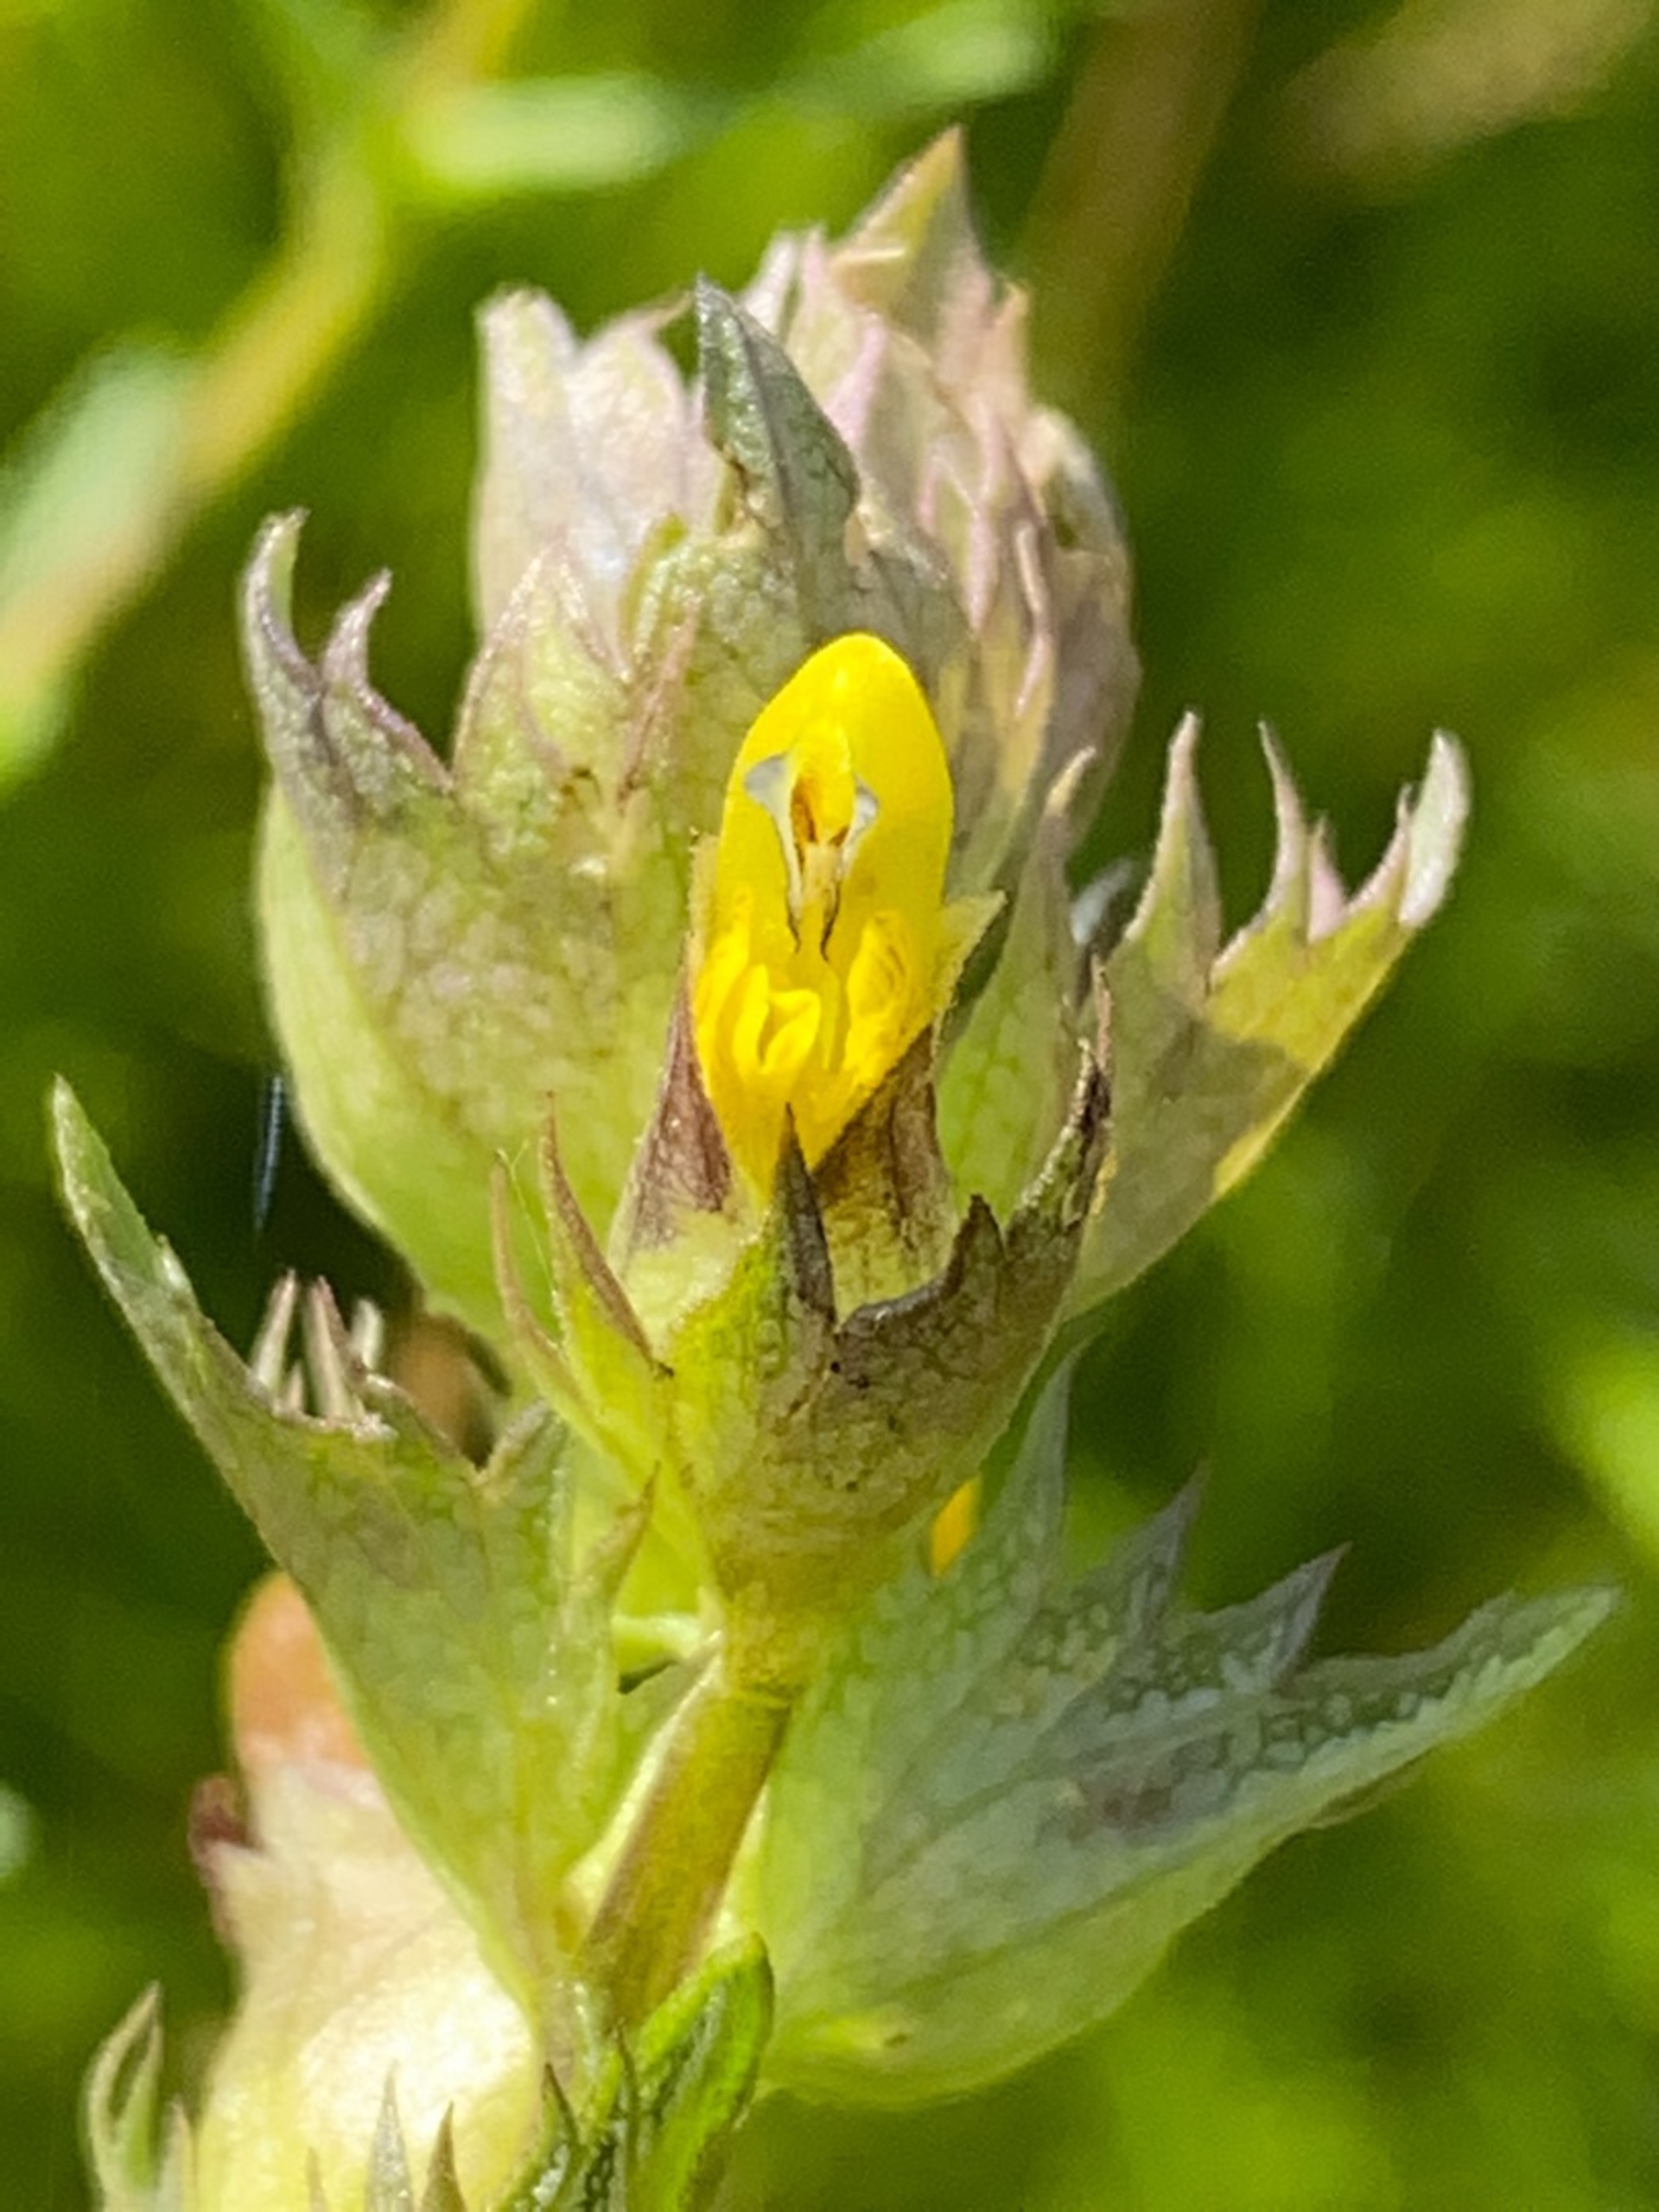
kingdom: Plantae
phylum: Tracheophyta
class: Magnoliopsida
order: Lamiales
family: Orobanchaceae
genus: Rhinanthus
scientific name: Rhinanthus
